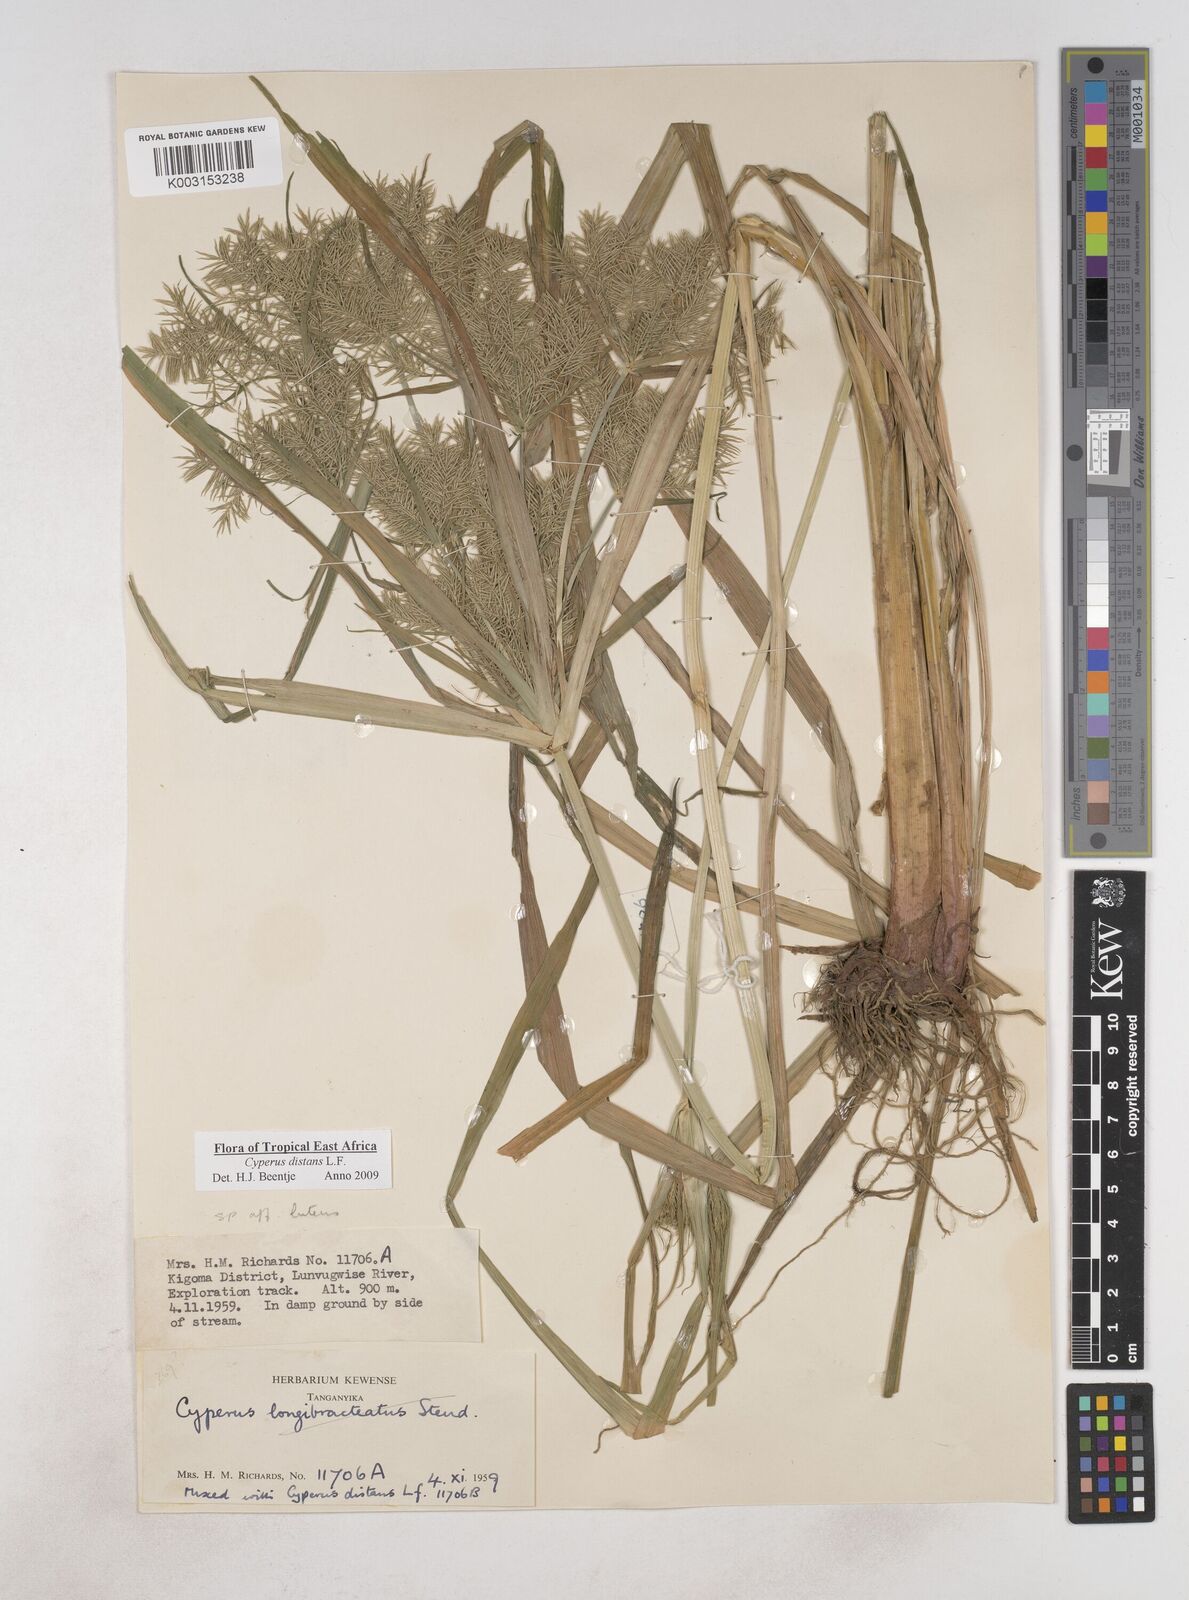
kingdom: Plantae
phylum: Tracheophyta
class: Liliopsida
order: Poales
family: Cyperaceae
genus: Cyperus
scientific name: Cyperus distans
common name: Slender cyperus
